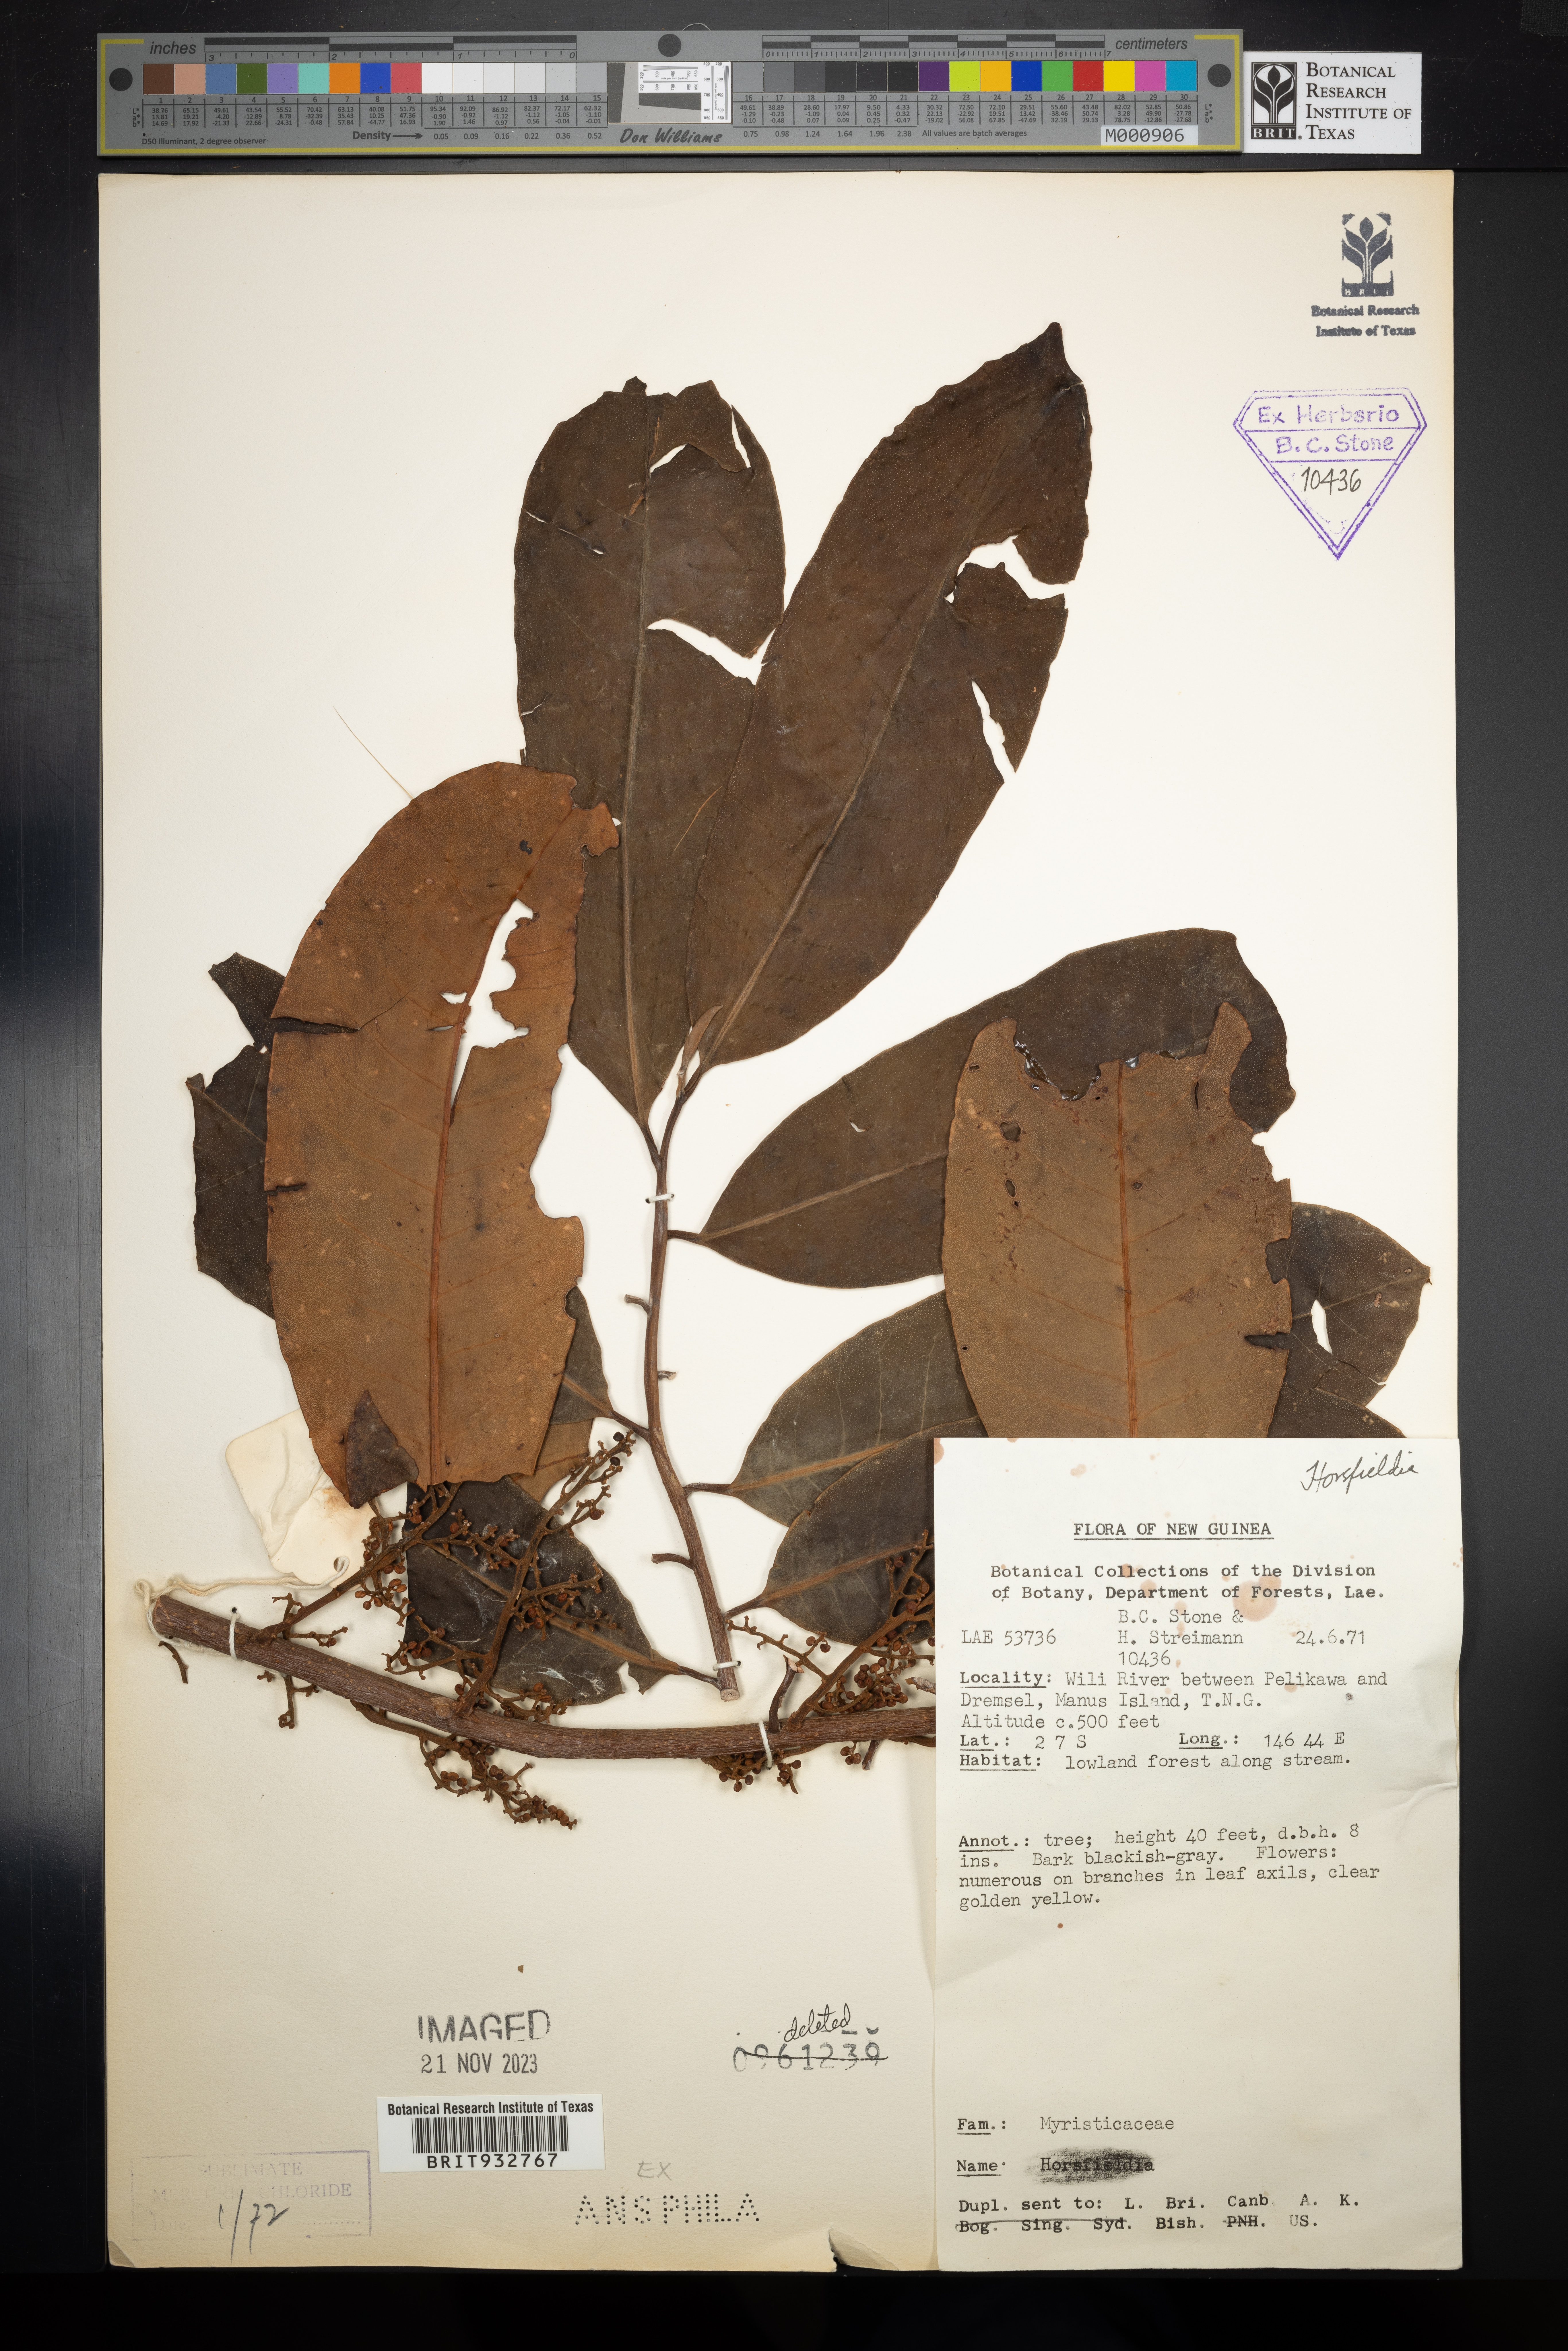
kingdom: Plantae
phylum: Tracheophyta
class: Magnoliopsida
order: Magnoliales
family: Myristicaceae
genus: Horsfieldia
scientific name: Horsfieldia
